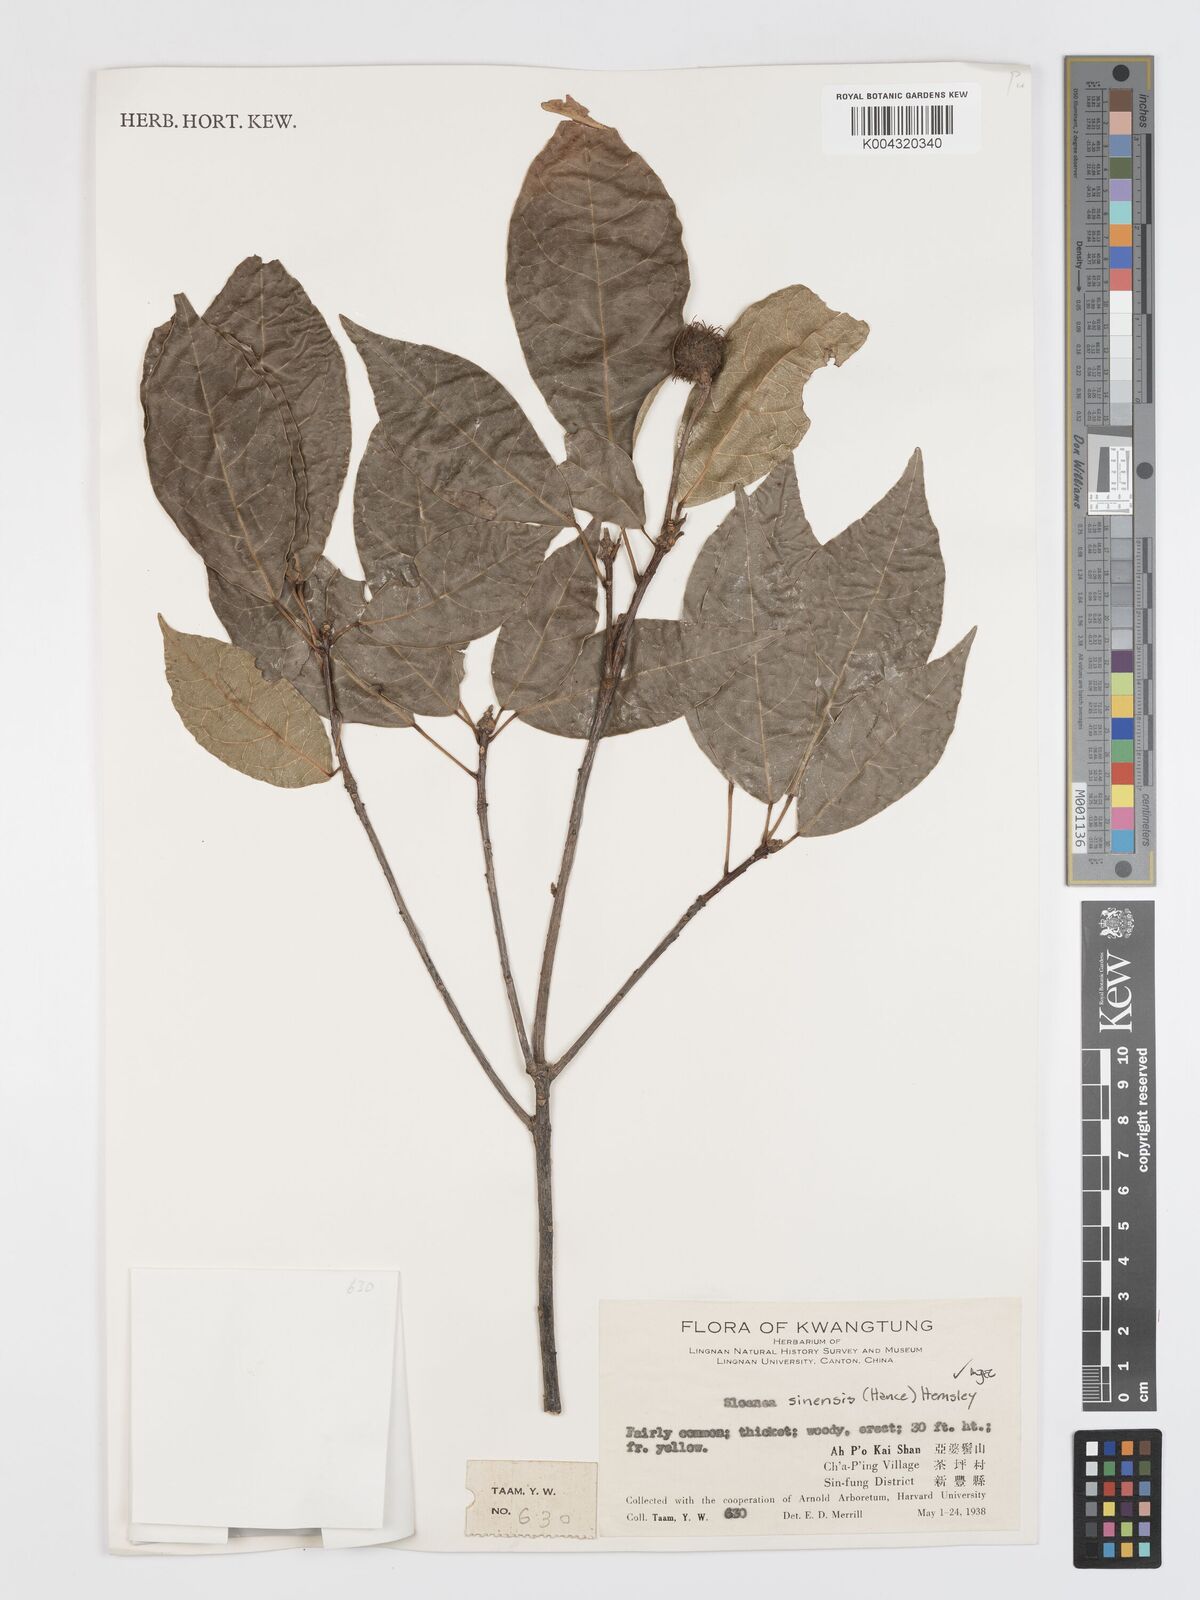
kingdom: Plantae
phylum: Tracheophyta
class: Magnoliopsida
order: Oxalidales
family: Elaeocarpaceae
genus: Sloanea
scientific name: Sloanea sinensis
